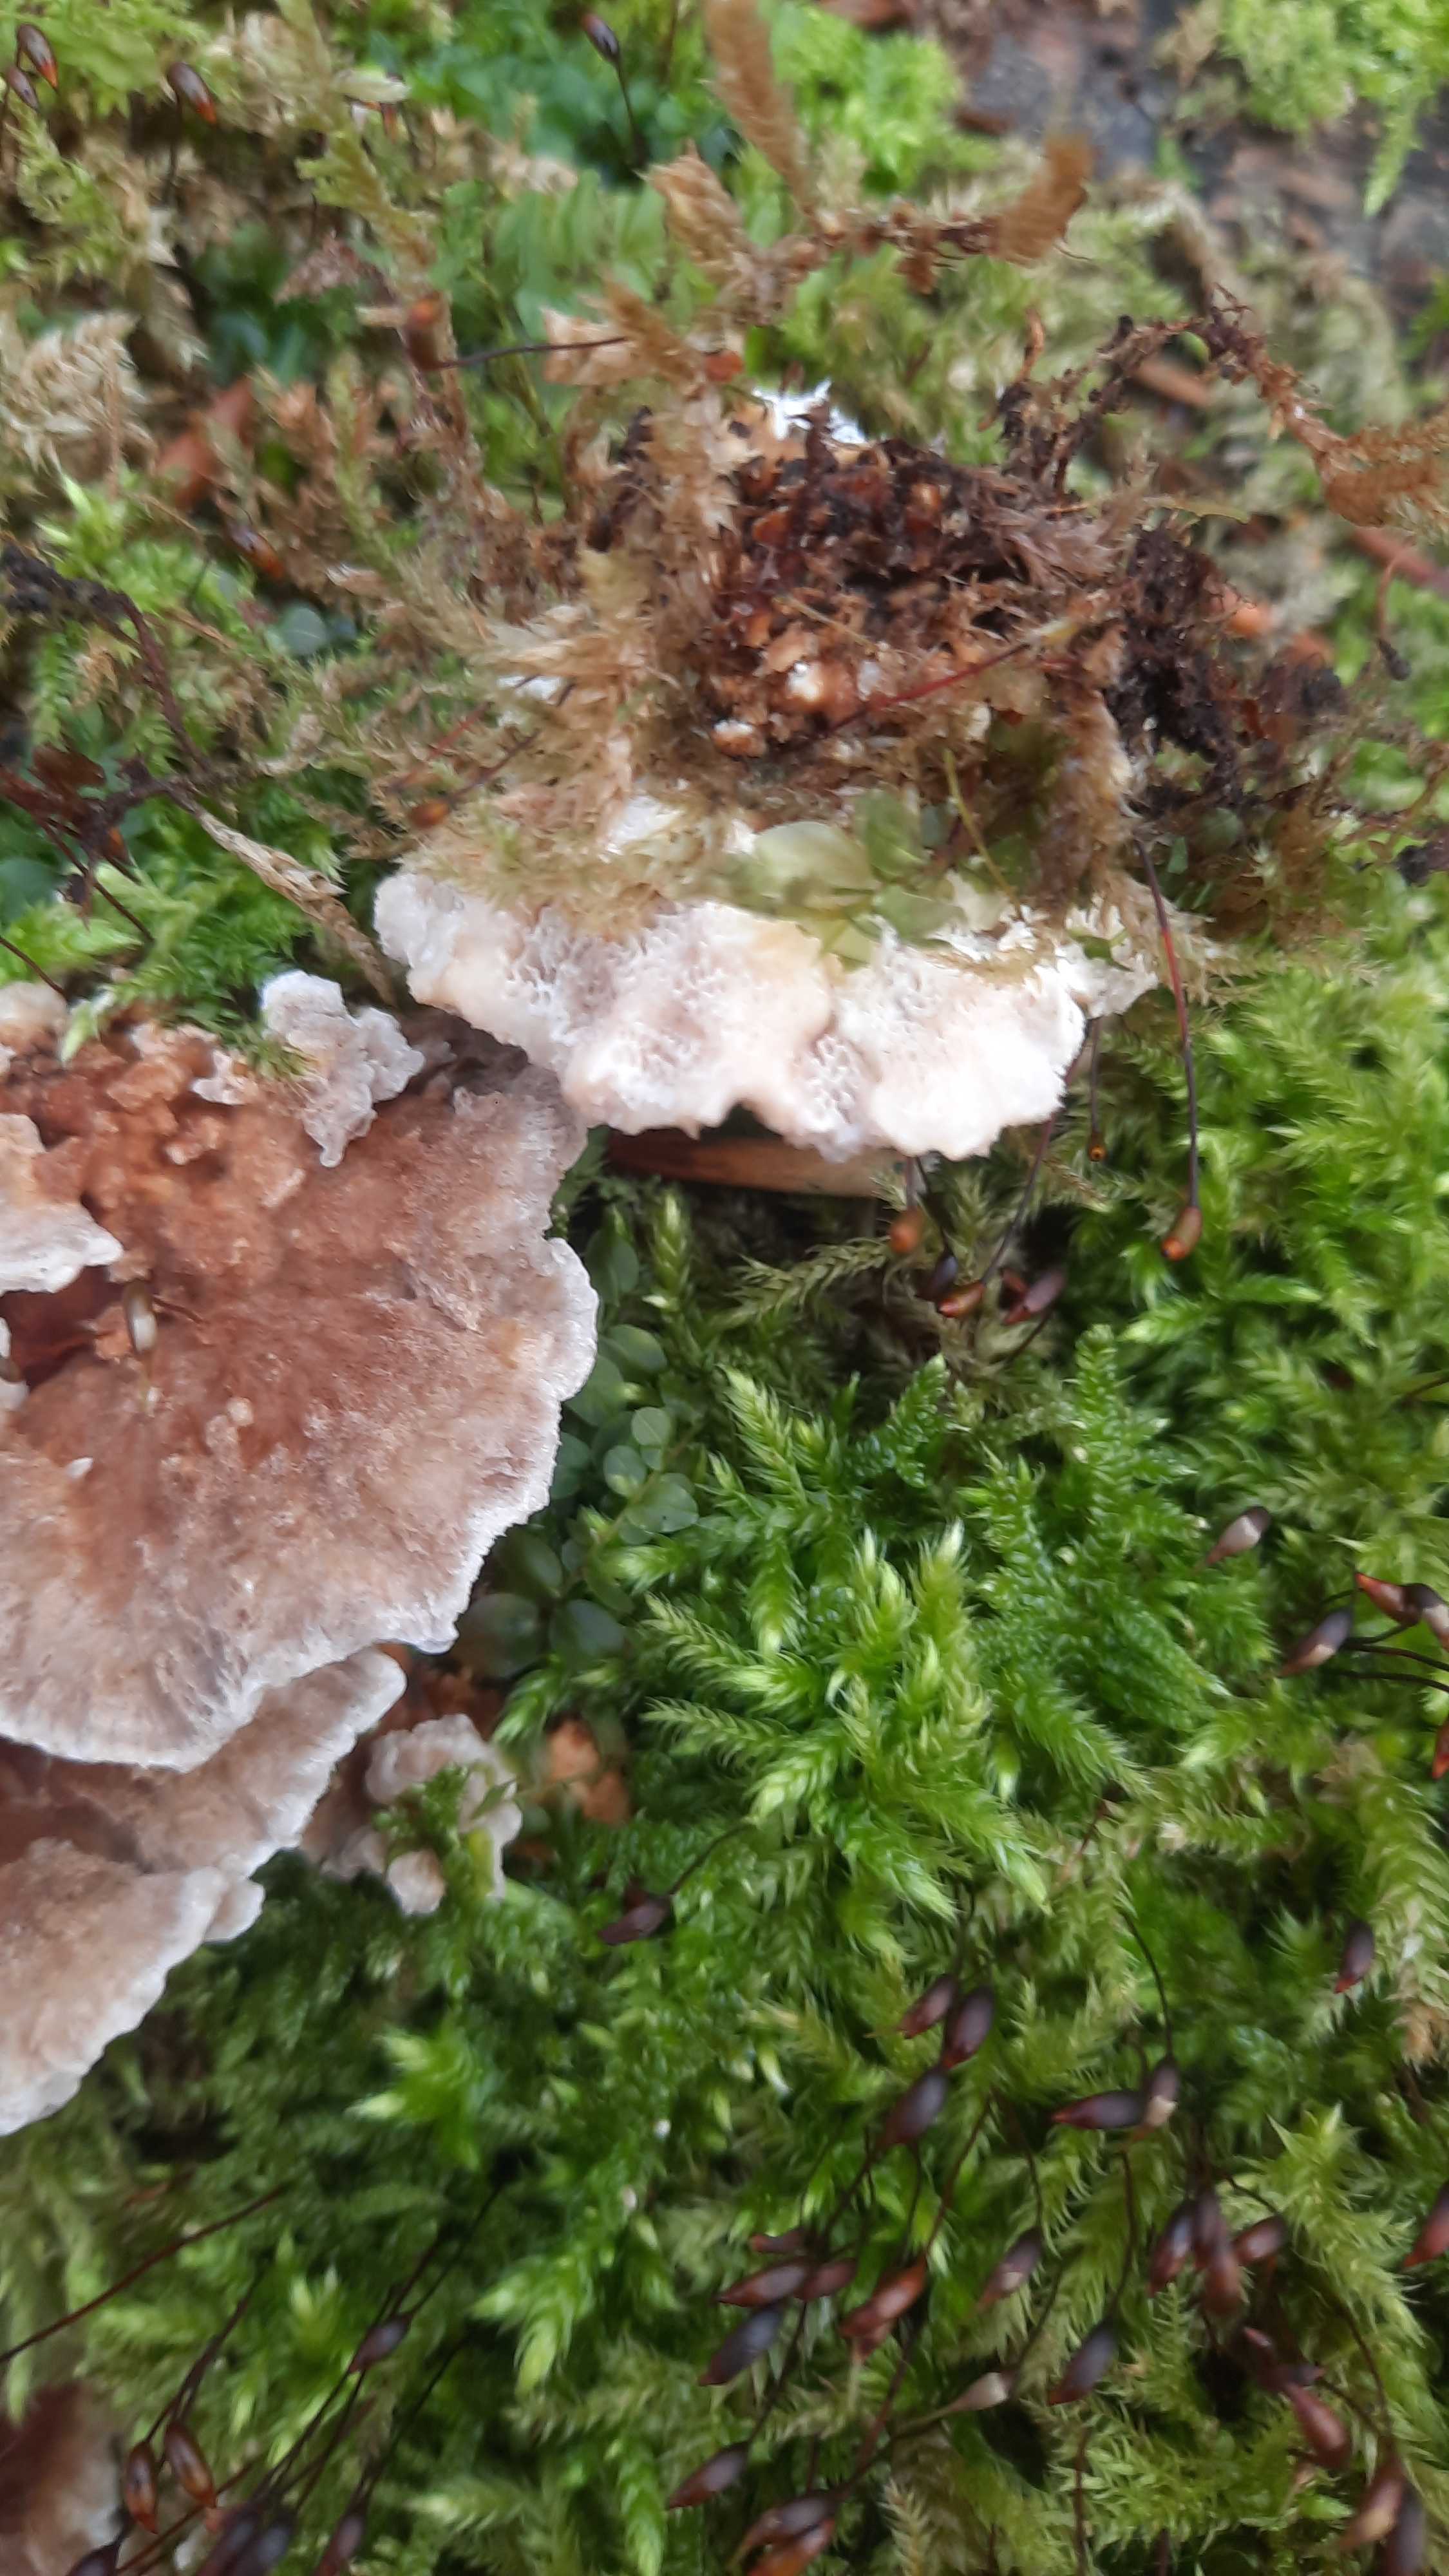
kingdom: Fungi
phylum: Basidiomycota
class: Agaricomycetes
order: Polyporales
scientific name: Polyporales
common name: poresvampordenen
